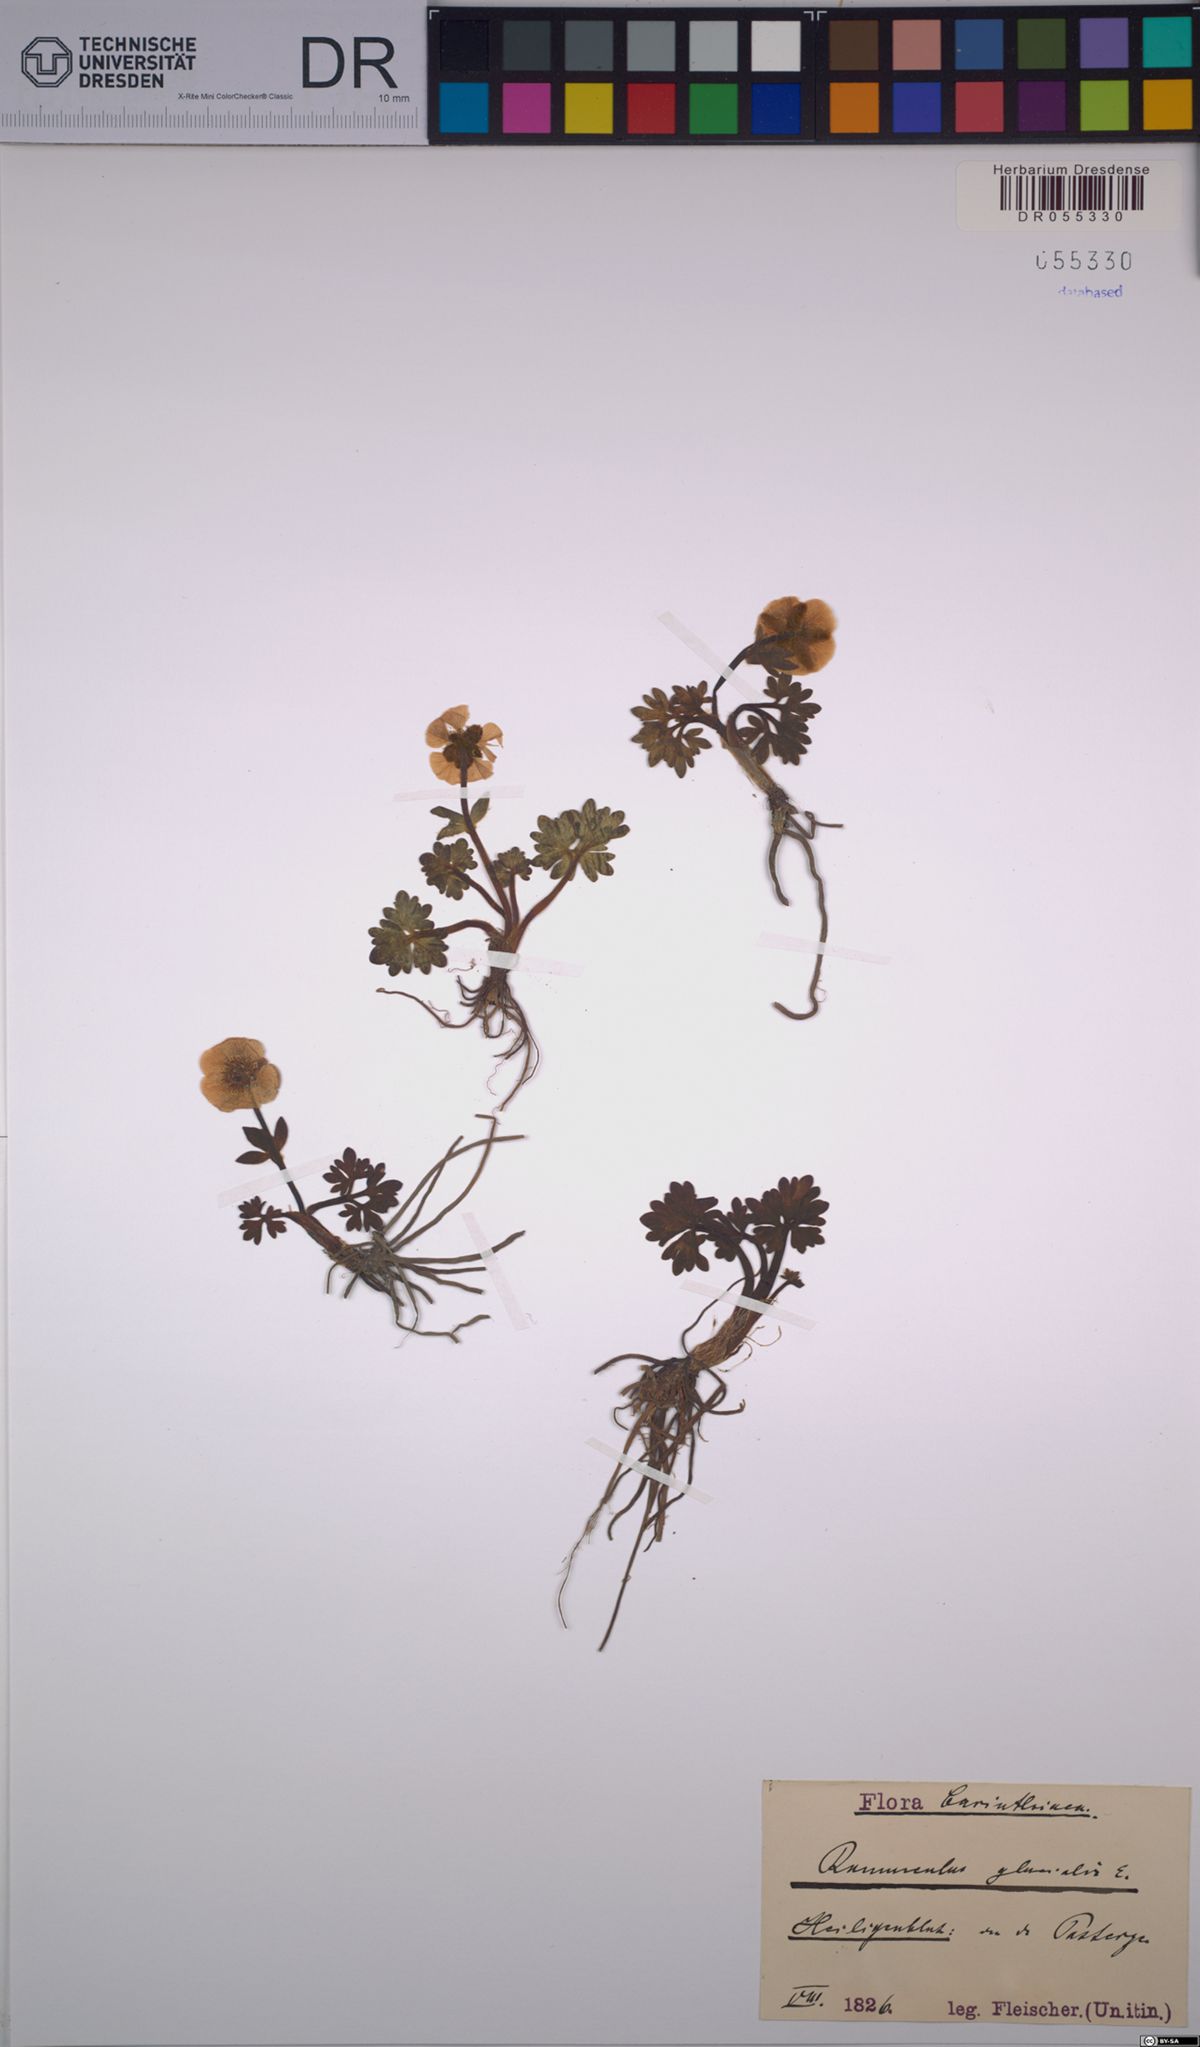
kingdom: Plantae
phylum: Tracheophyta
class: Magnoliopsida
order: Ranunculales
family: Ranunculaceae
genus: Ranunculus
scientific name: Ranunculus glacialis
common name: Glacier buttercup
